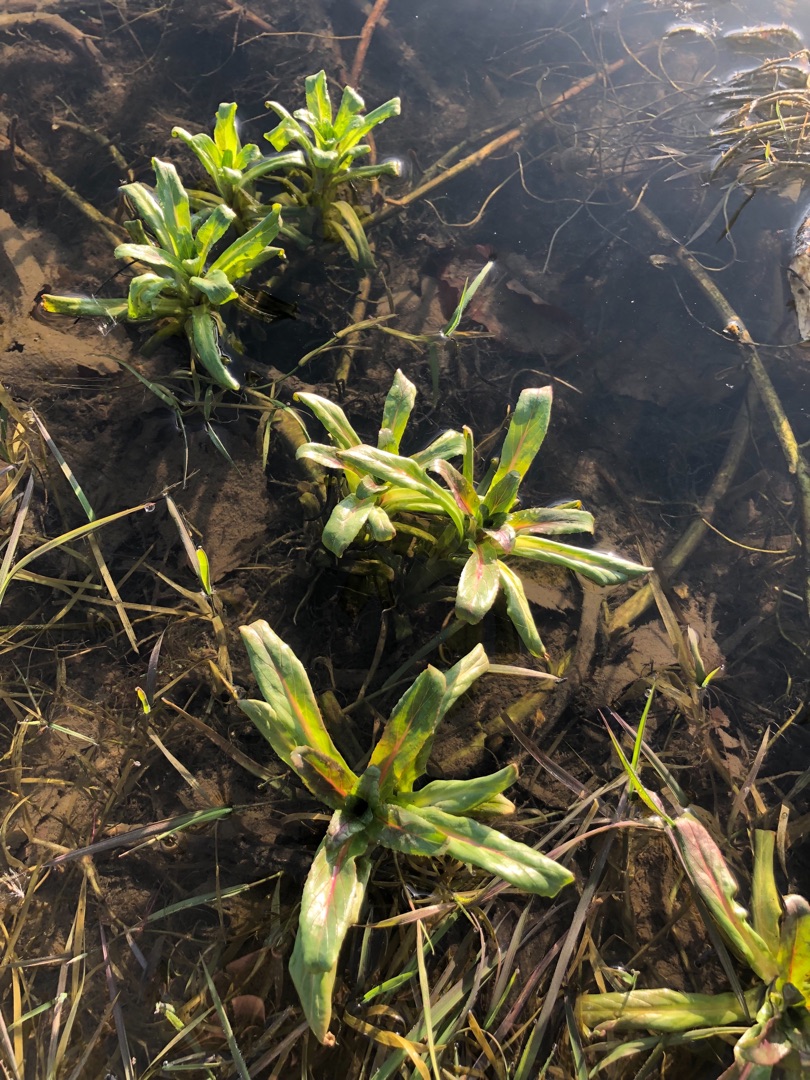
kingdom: Plantae
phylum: Tracheophyta
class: Magnoliopsida
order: Myrtales
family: Onagraceae
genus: Epilobium
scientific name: Epilobium hirsutum
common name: Lådden dueurt
